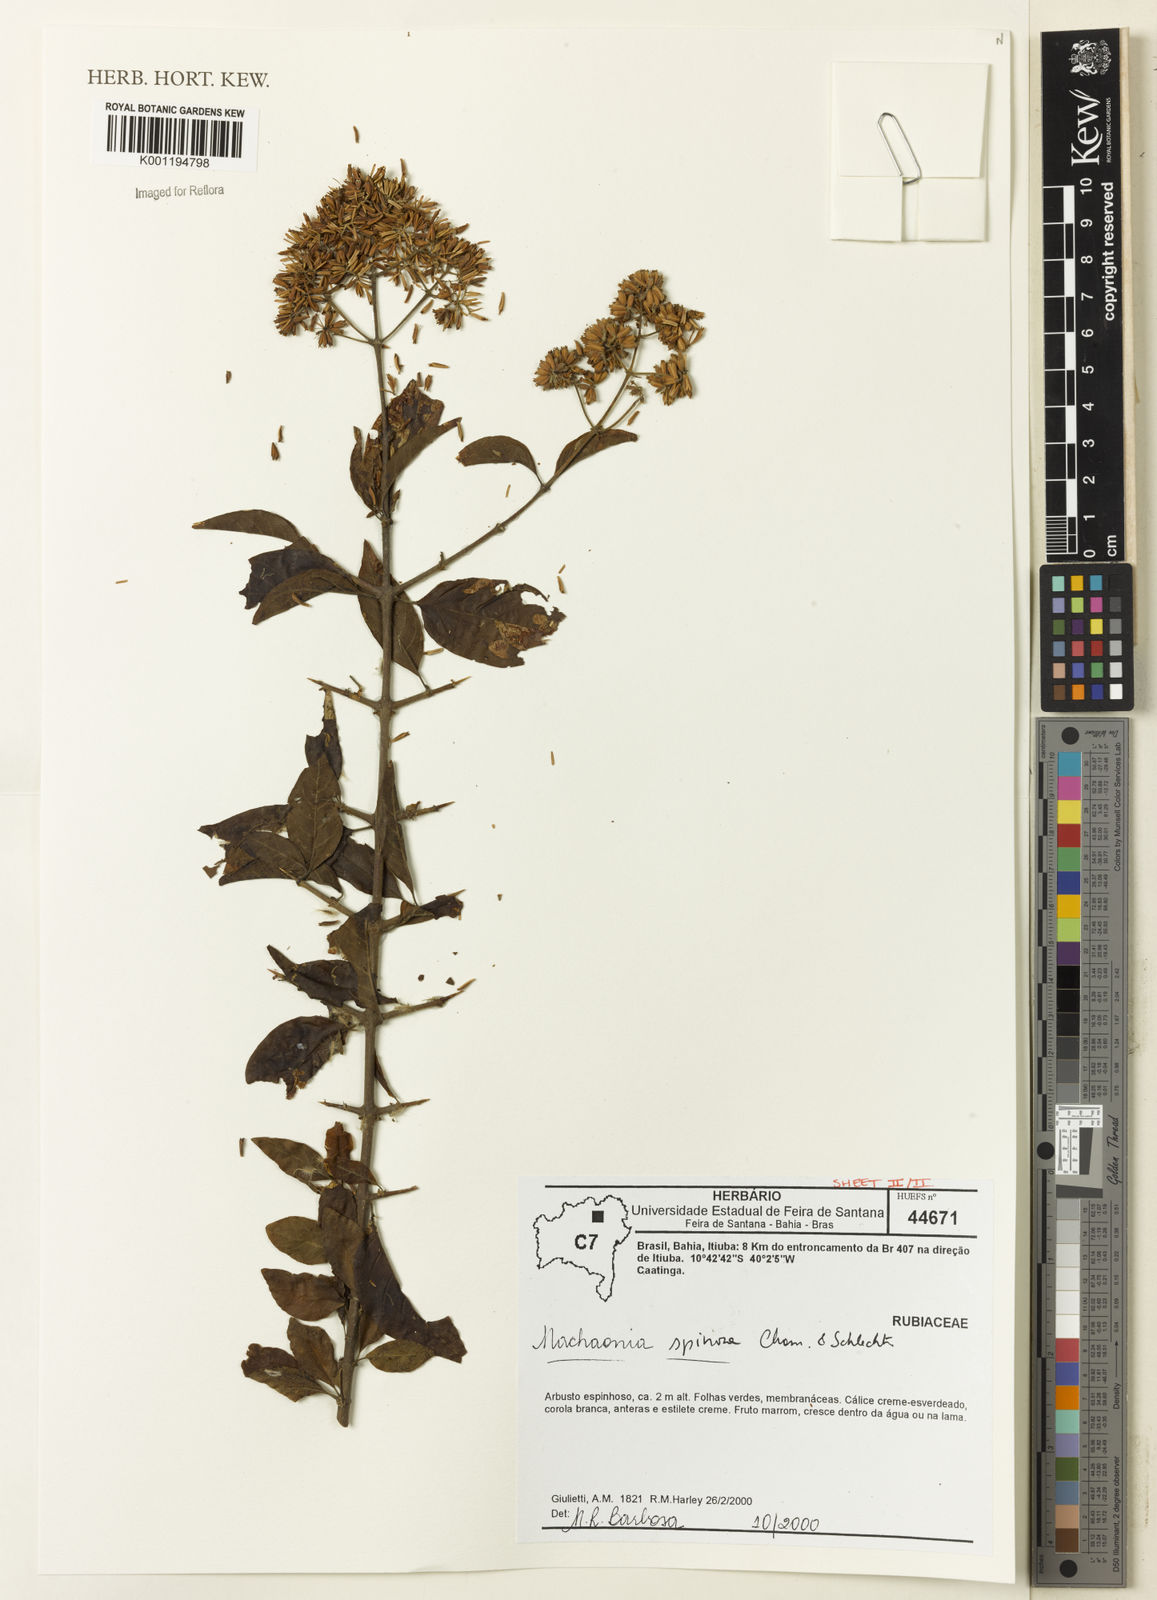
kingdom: Plantae
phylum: Tracheophyta
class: Magnoliopsida
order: Gentianales
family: Rubiaceae
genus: Machaonia
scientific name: Machaonia brasiliensis
